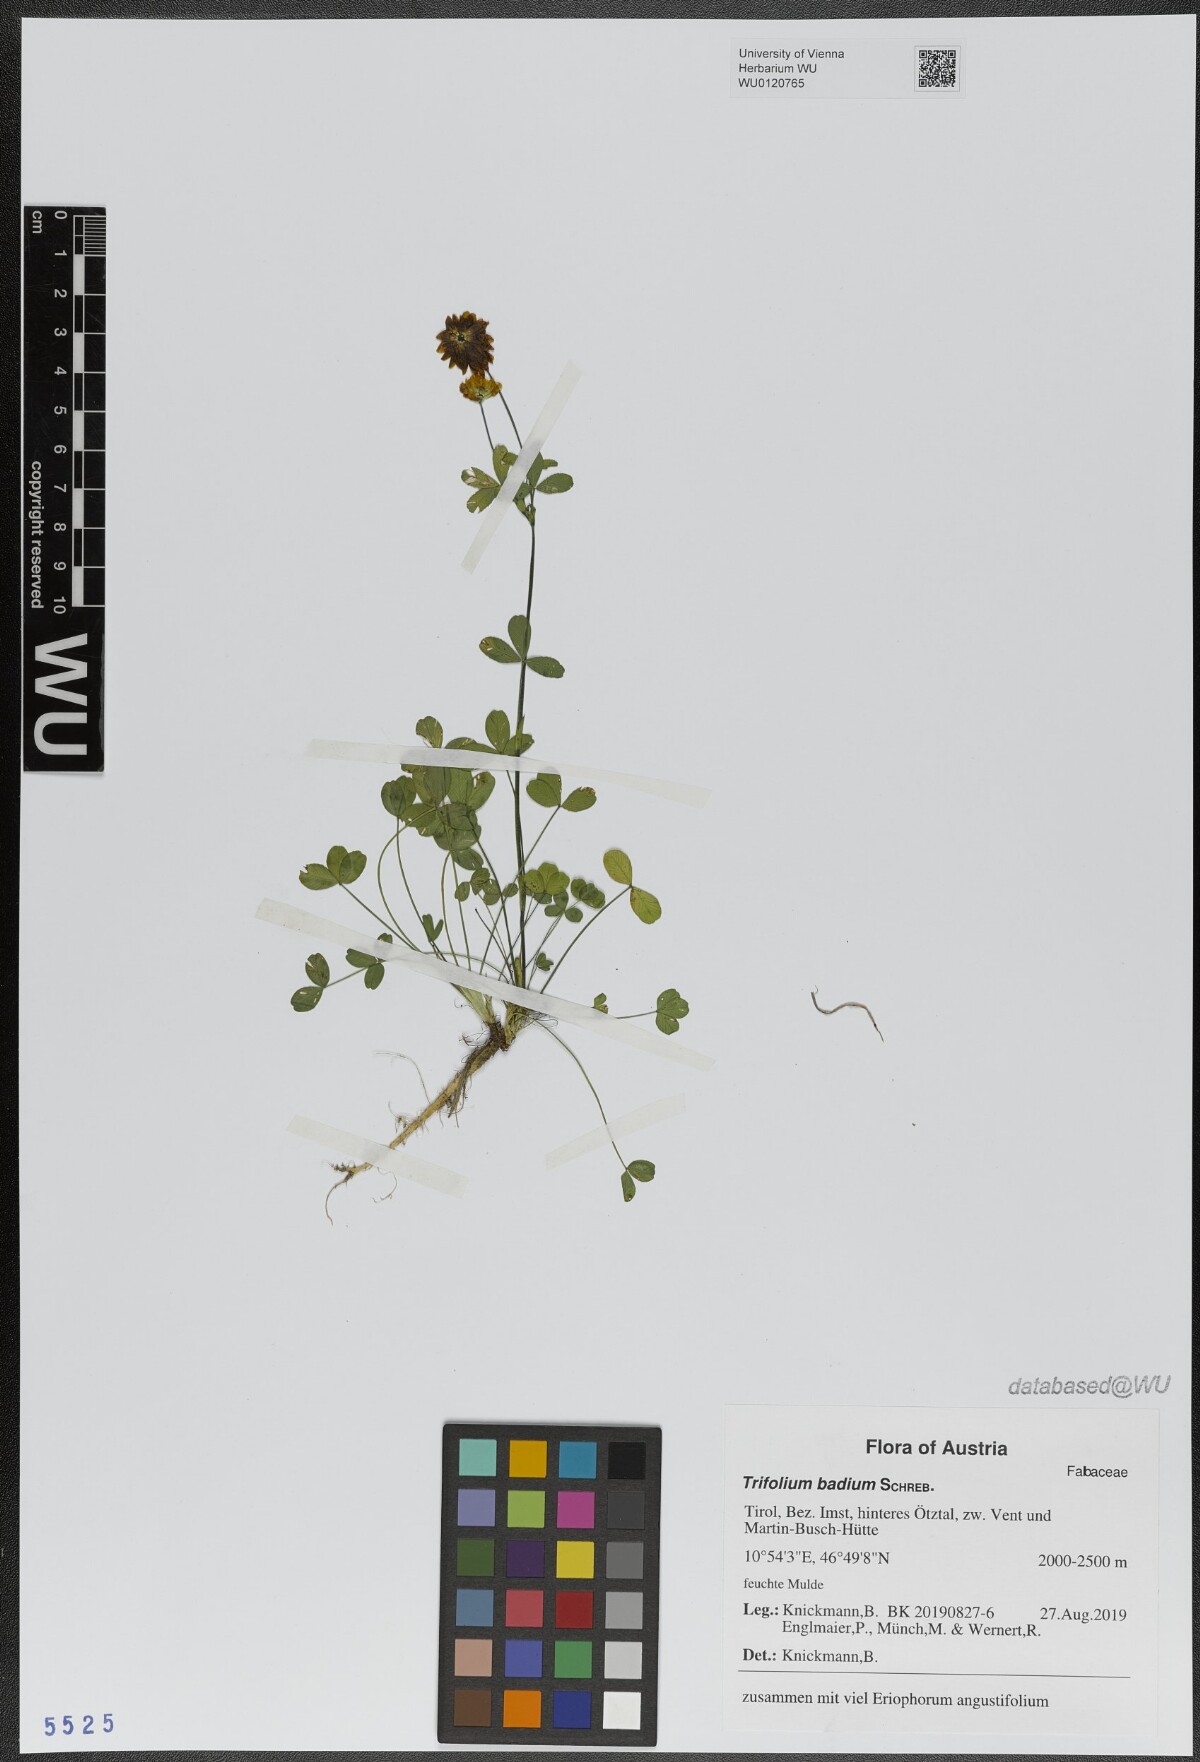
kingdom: Plantae
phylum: Tracheophyta
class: Magnoliopsida
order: Fabales
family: Fabaceae
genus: Trifolium
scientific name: Trifolium badium
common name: Brown clover
